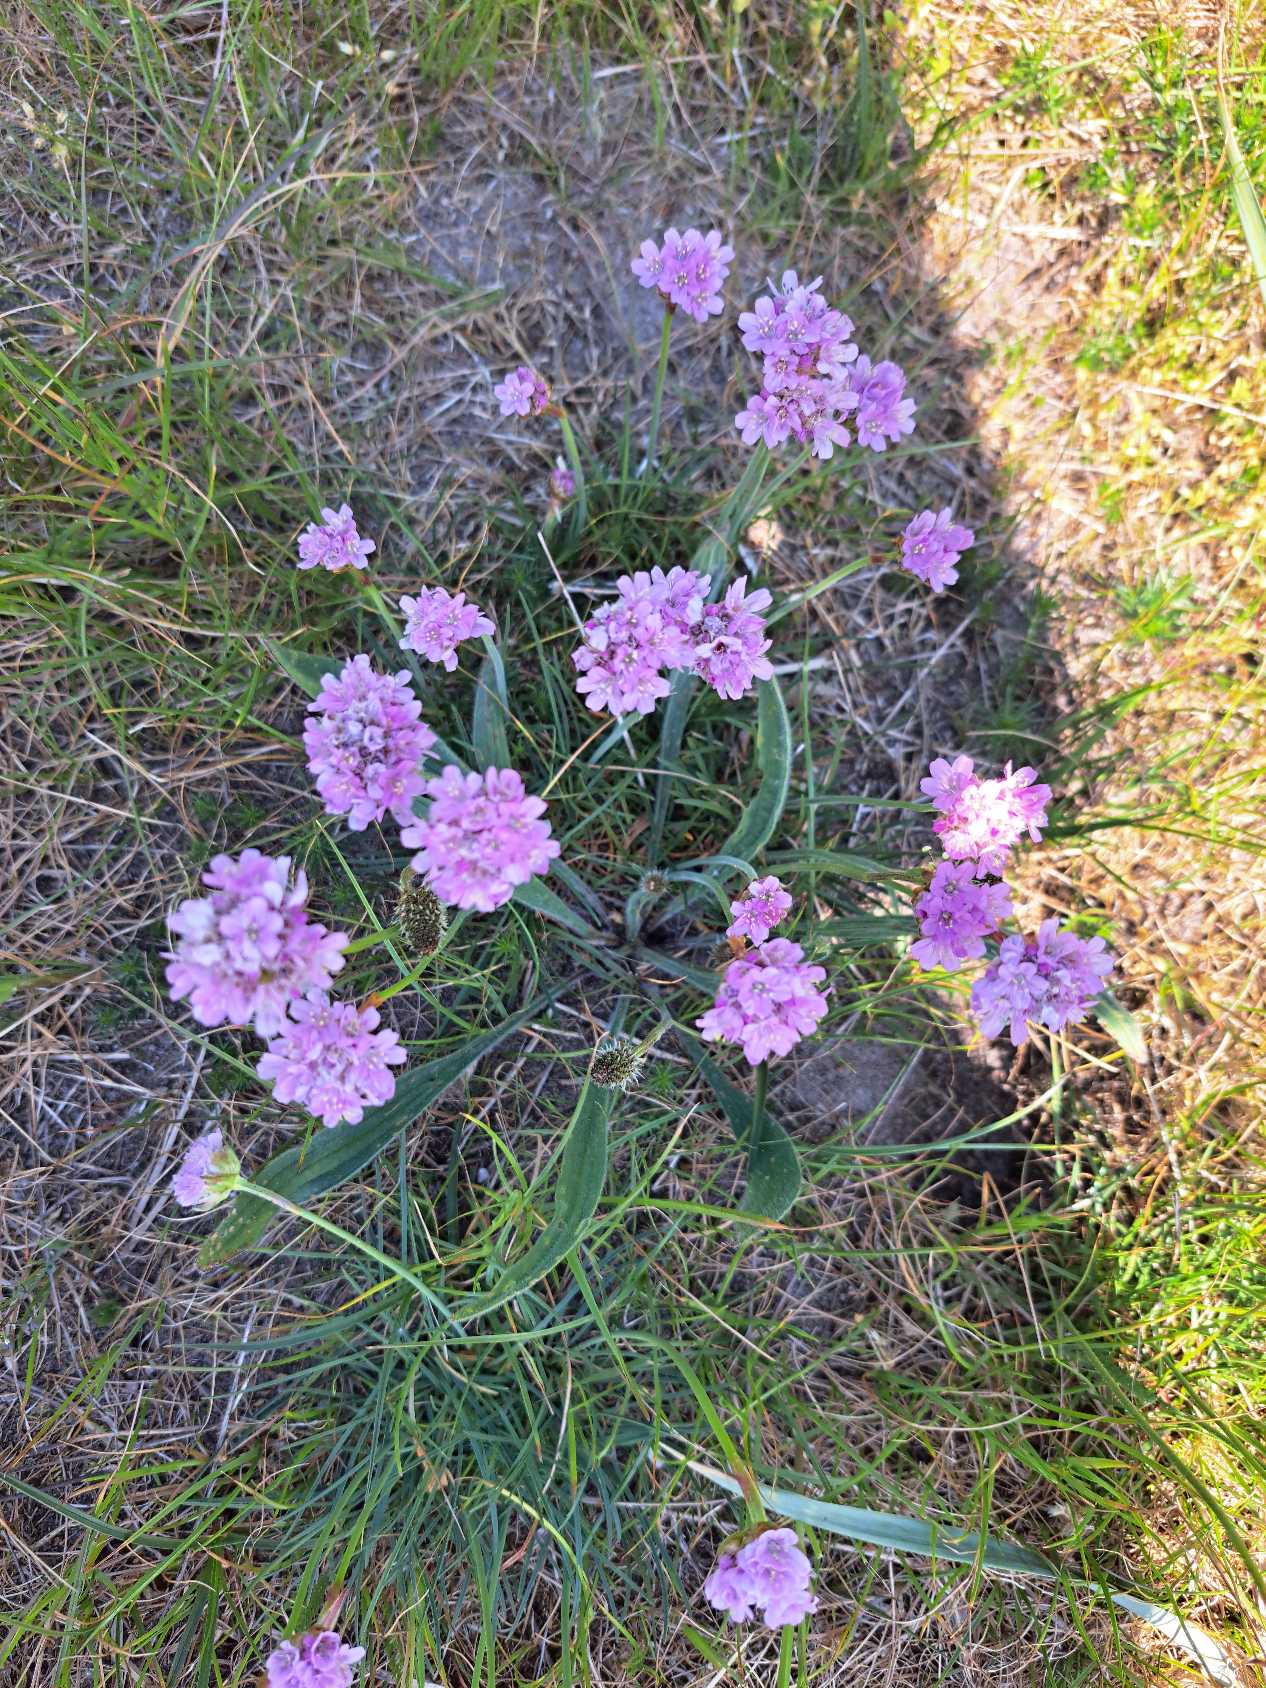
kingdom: Plantae
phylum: Tracheophyta
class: Magnoliopsida
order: Caryophyllales
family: Plumbaginaceae
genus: Armeria
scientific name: Armeria maritima
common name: Engelskgræs
